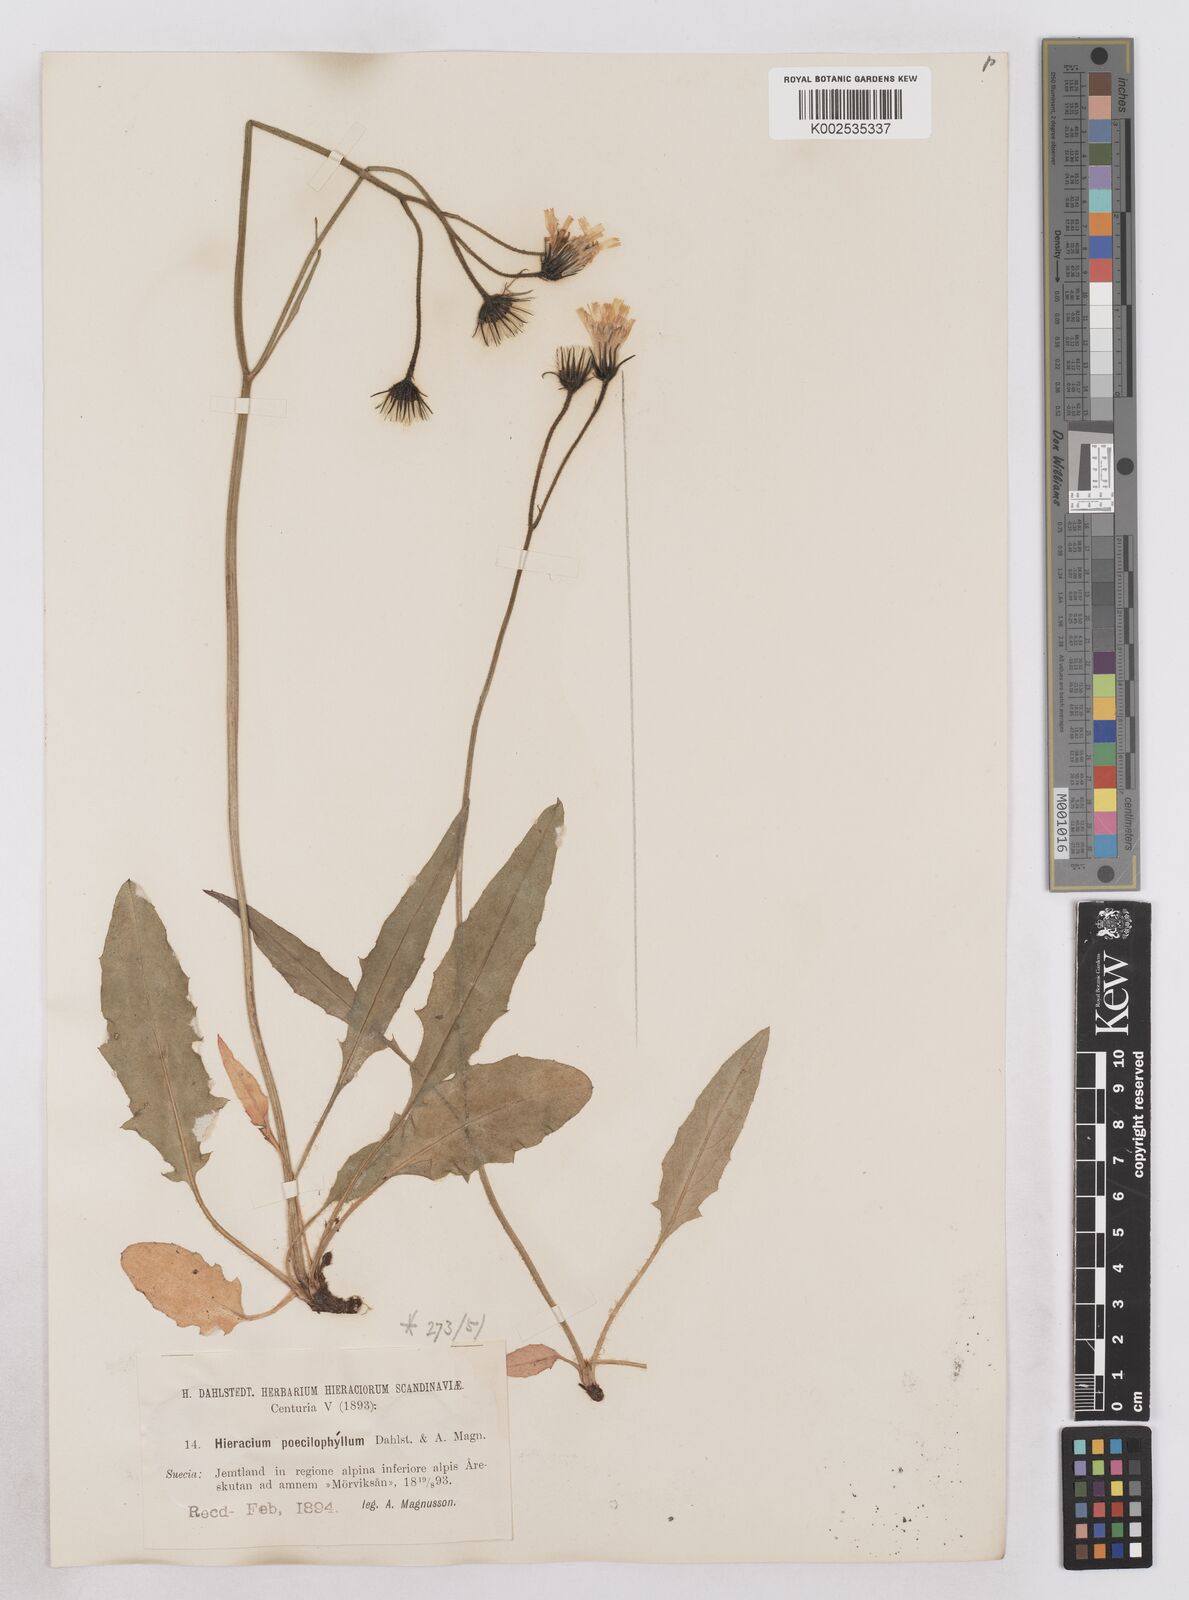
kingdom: Plantae
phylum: Tracheophyta
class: Magnoliopsida
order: Asterales
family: Asteraceae
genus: Hieracium
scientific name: Hieracium conspurcans
